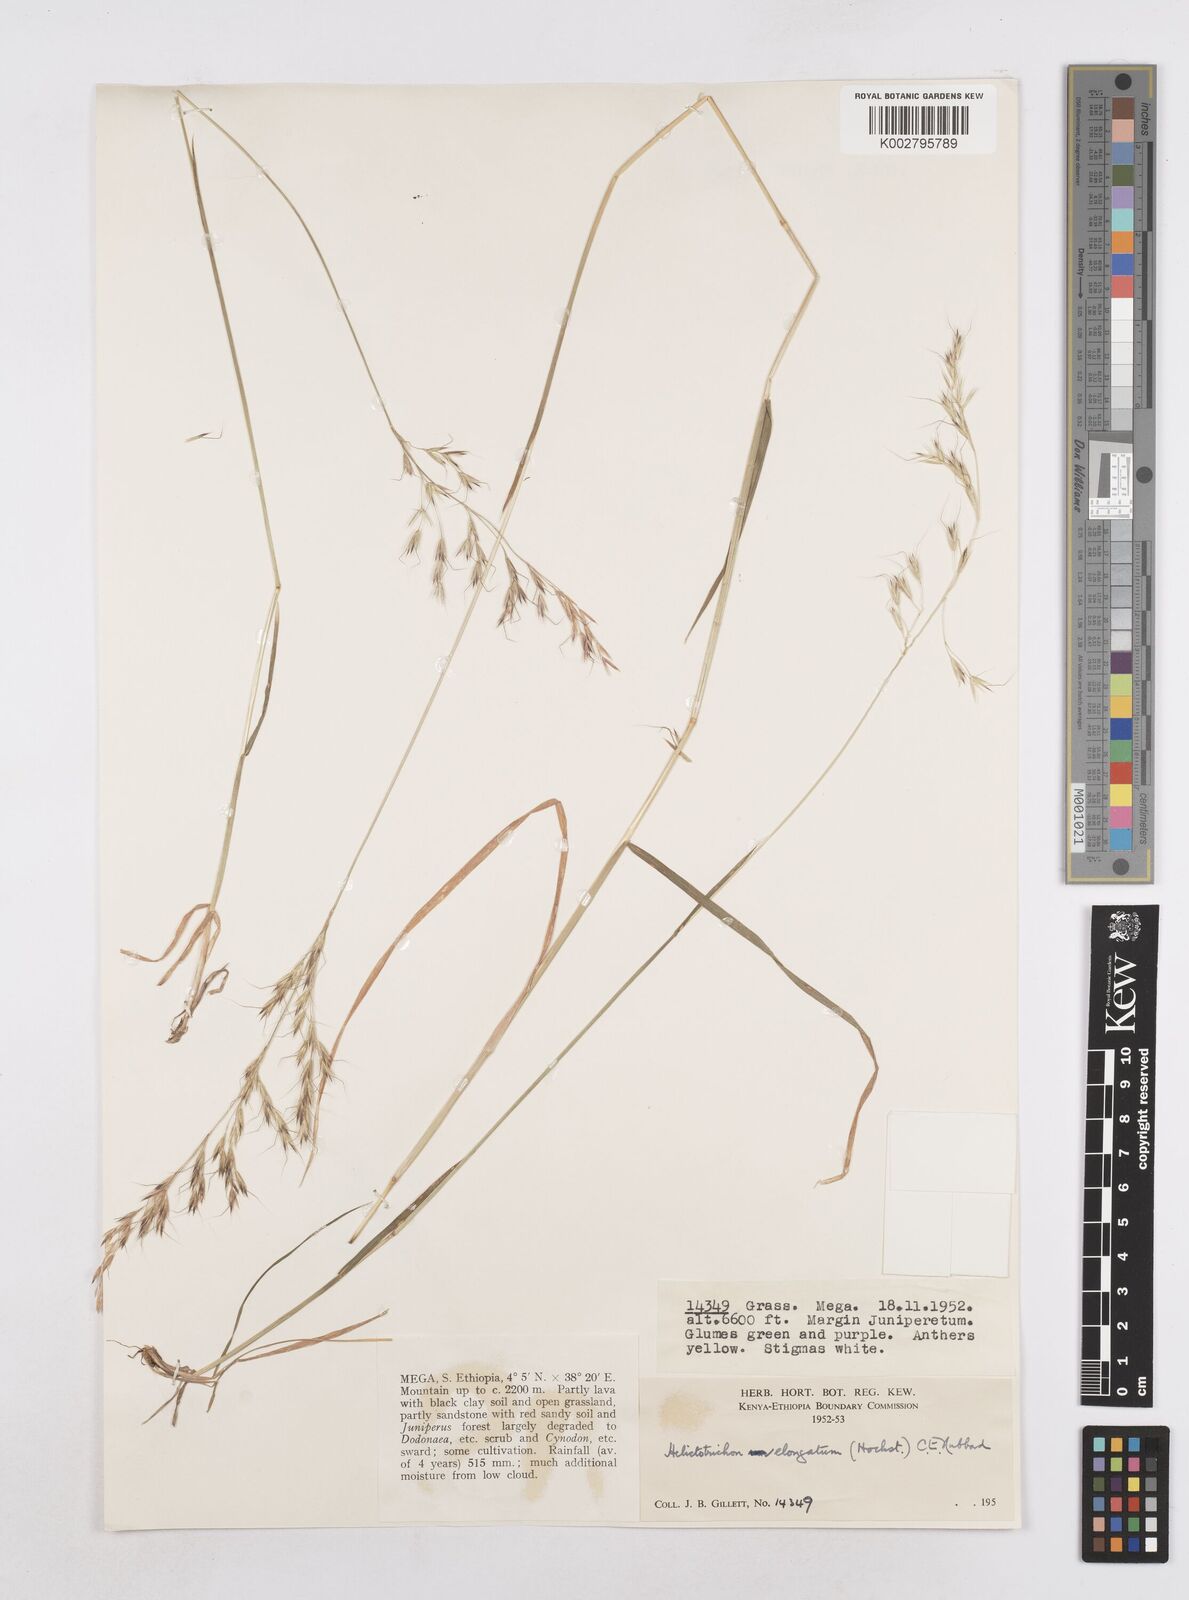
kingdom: Plantae
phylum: Tracheophyta
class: Liliopsida
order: Poales
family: Poaceae
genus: Trisetopsis
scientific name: Trisetopsis elongata
